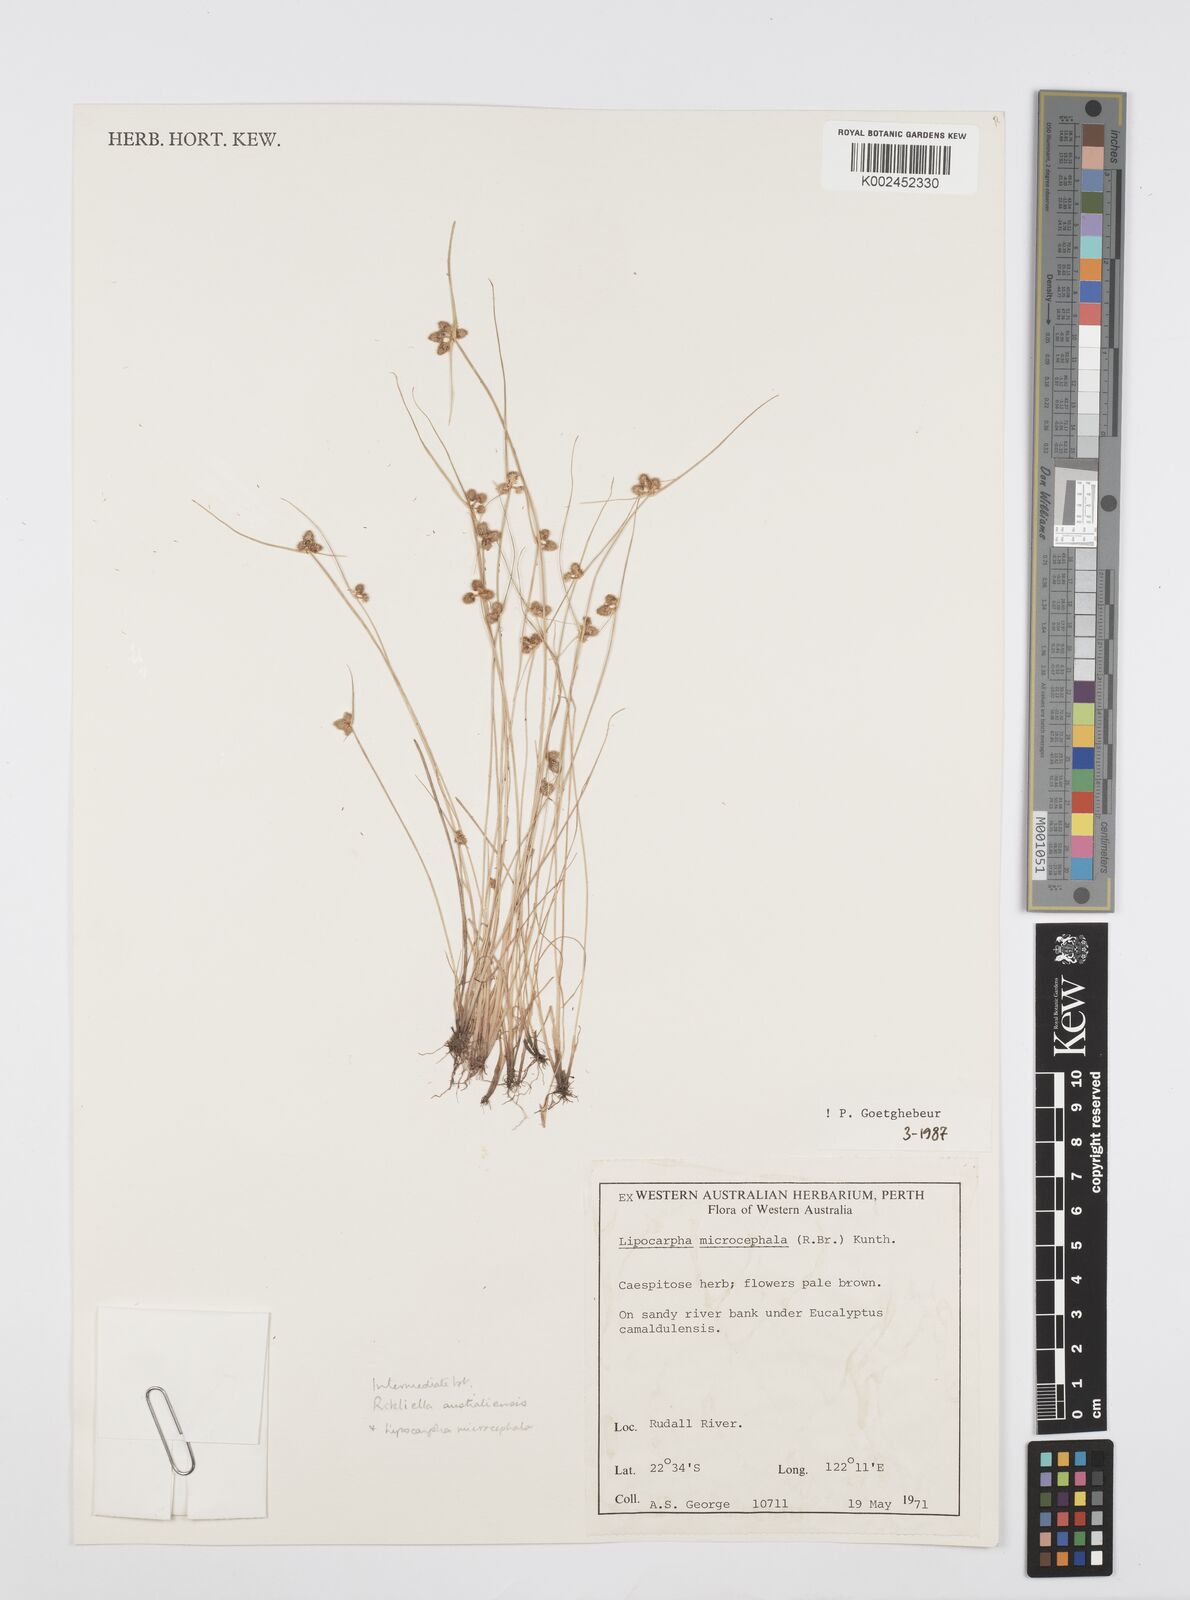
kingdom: Plantae
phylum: Tracheophyta
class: Liliopsida
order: Poales
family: Cyperaceae
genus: Cyperus
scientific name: Cyperus
